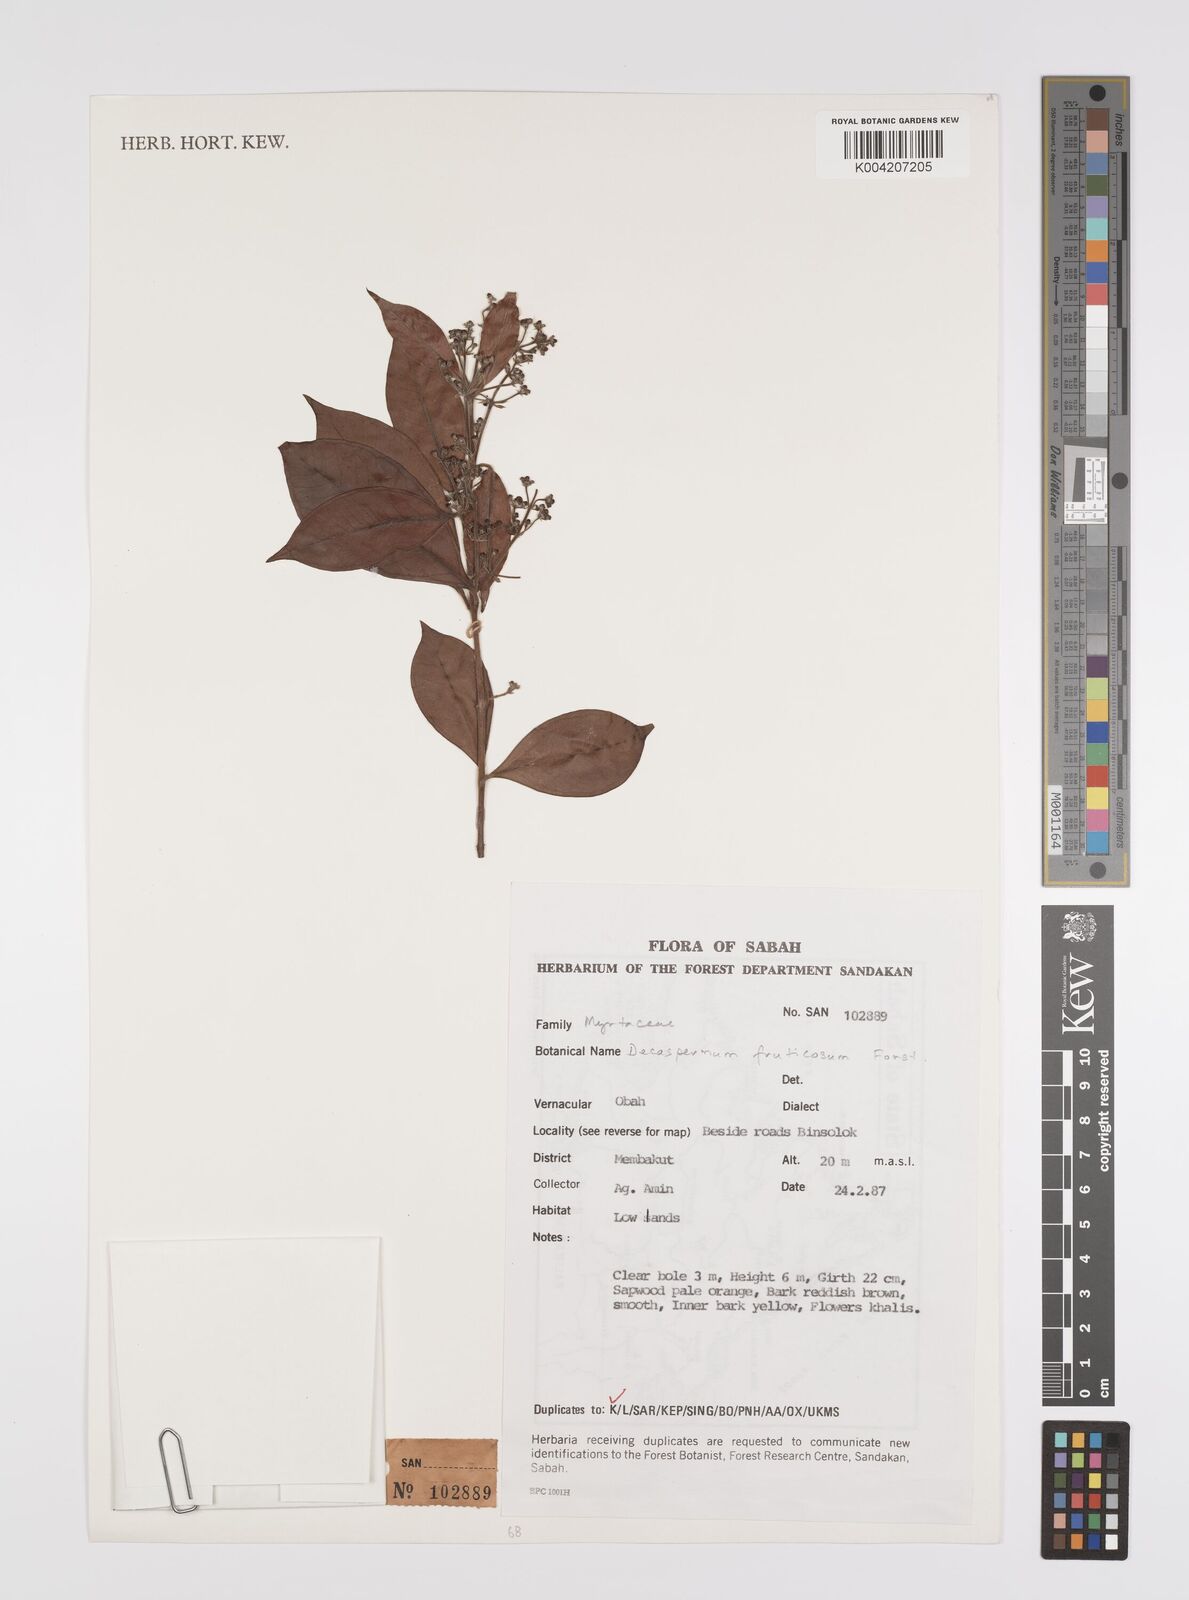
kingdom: Plantae
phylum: Tracheophyta
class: Magnoliopsida
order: Myrtales
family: Myrtaceae
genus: Decaspermum
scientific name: Decaspermum parviflorum
